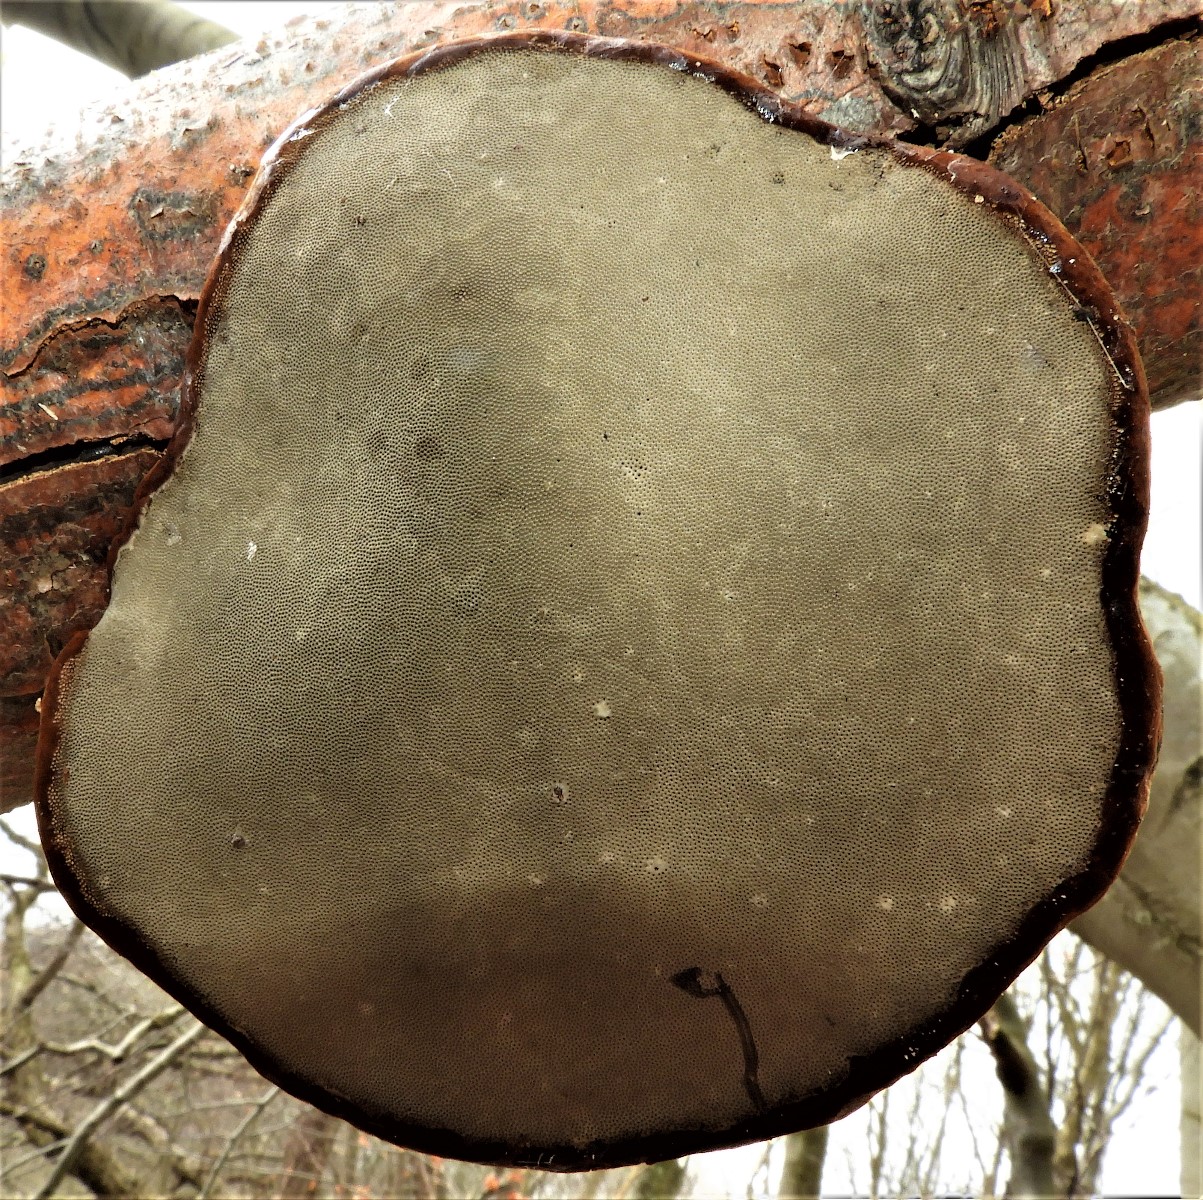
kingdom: Fungi
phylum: Basidiomycota
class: Agaricomycetes
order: Polyporales
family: Polyporaceae
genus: Fomes
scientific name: Fomes fomentarius
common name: tøndersvamp
